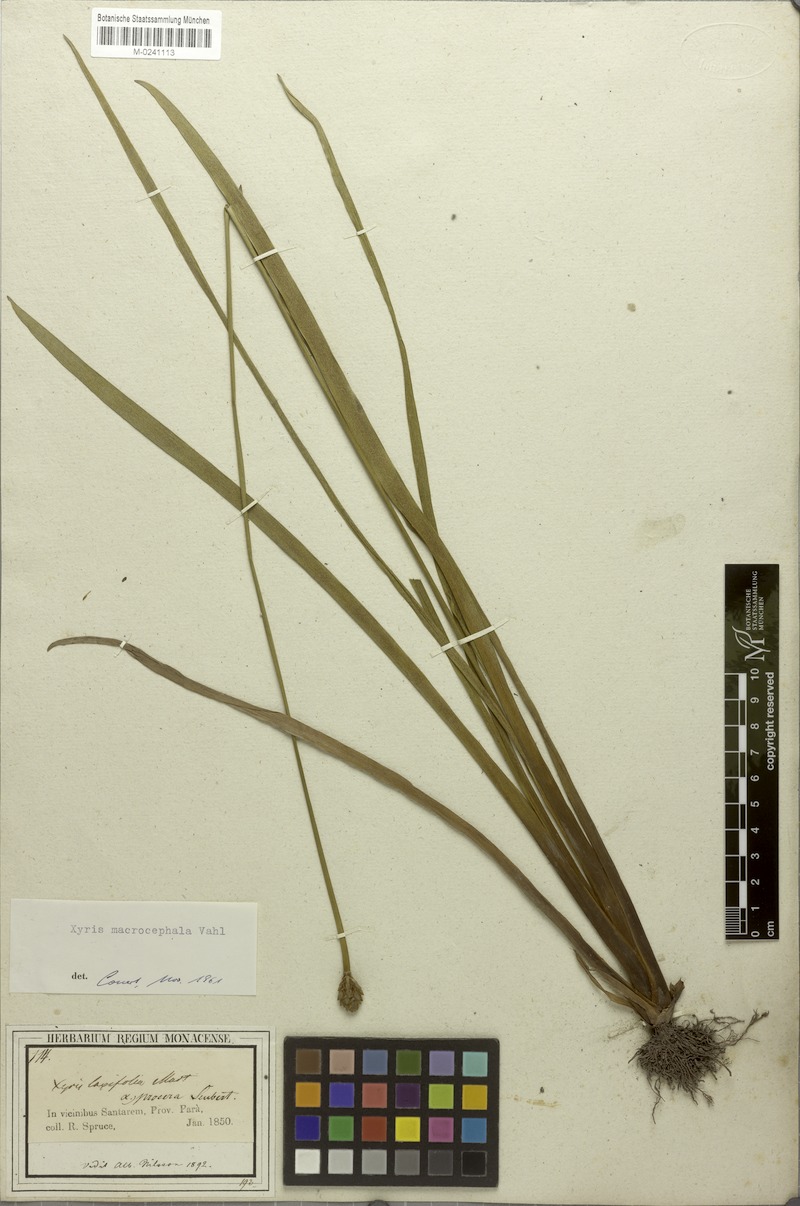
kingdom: Plantae
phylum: Tracheophyta
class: Liliopsida
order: Poales
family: Xyridaceae
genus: Xyris
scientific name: Xyris laxifolia
